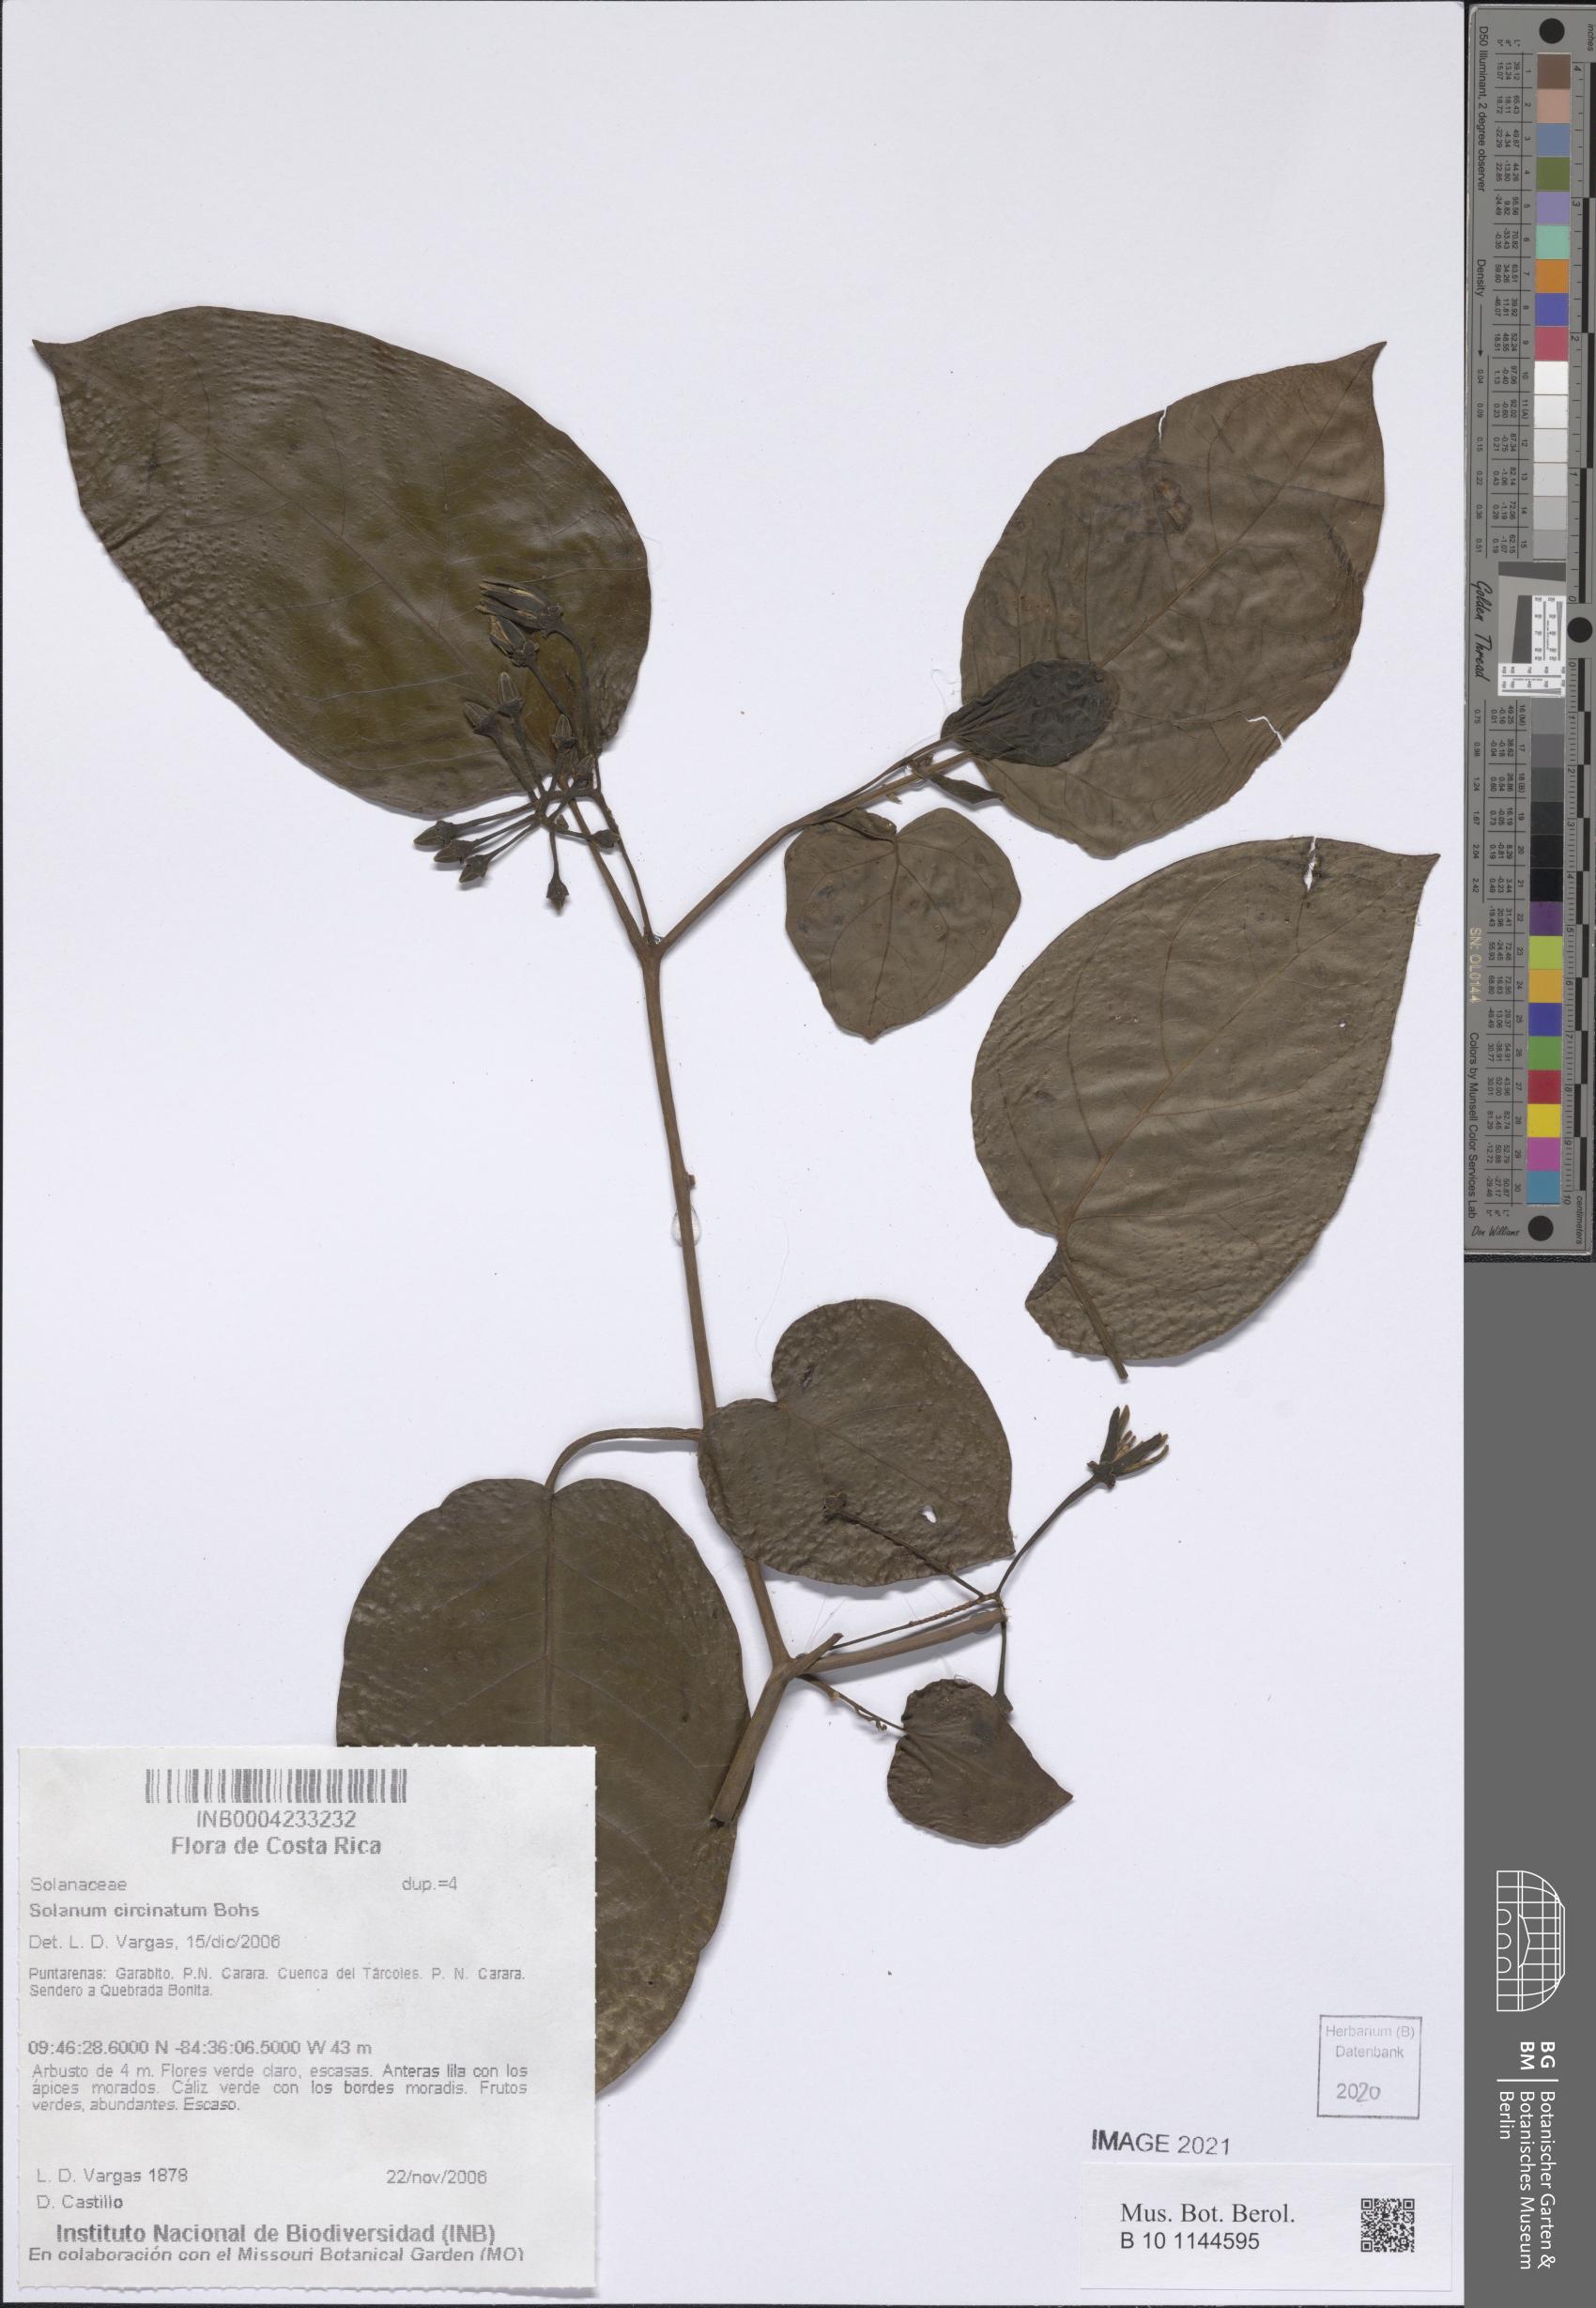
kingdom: Plantae
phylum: Tracheophyta
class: Magnoliopsida
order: Solanales
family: Solanaceae
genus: Solanum
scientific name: Solanum splendens
